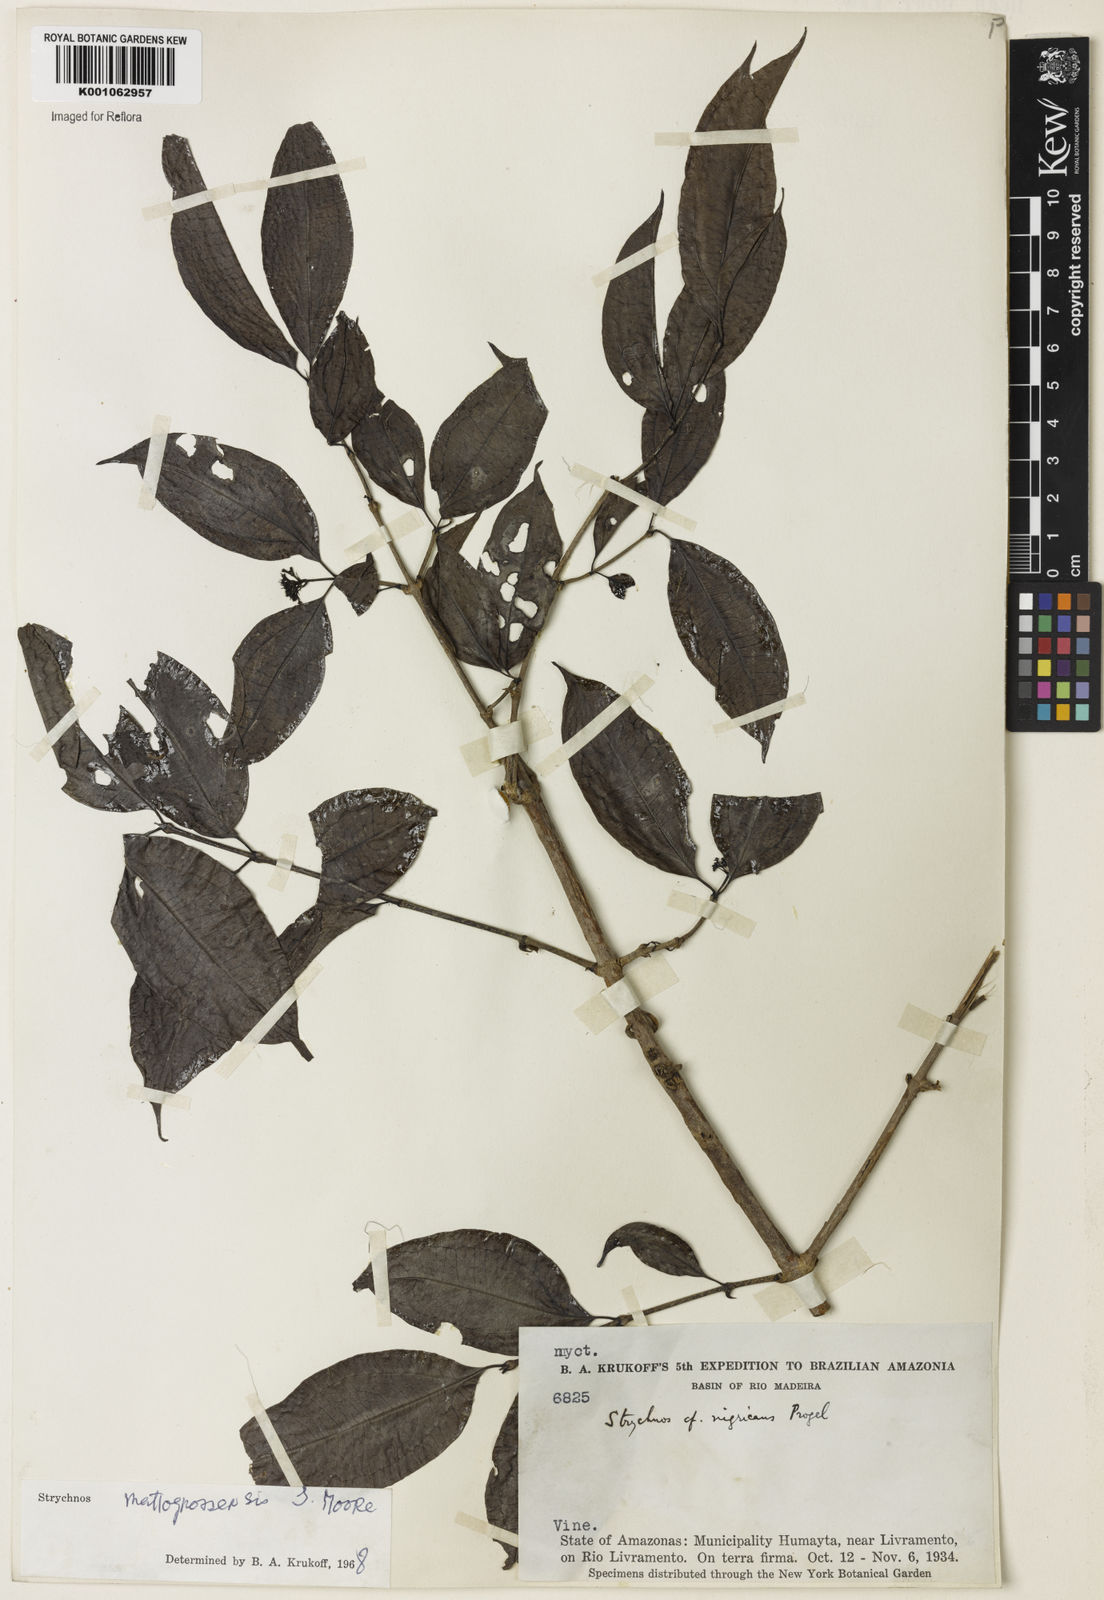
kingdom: Plantae
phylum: Tracheophyta
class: Magnoliopsida
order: Gentianales
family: Loganiaceae
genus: Strychnos
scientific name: Strychnos mattogrossensis
